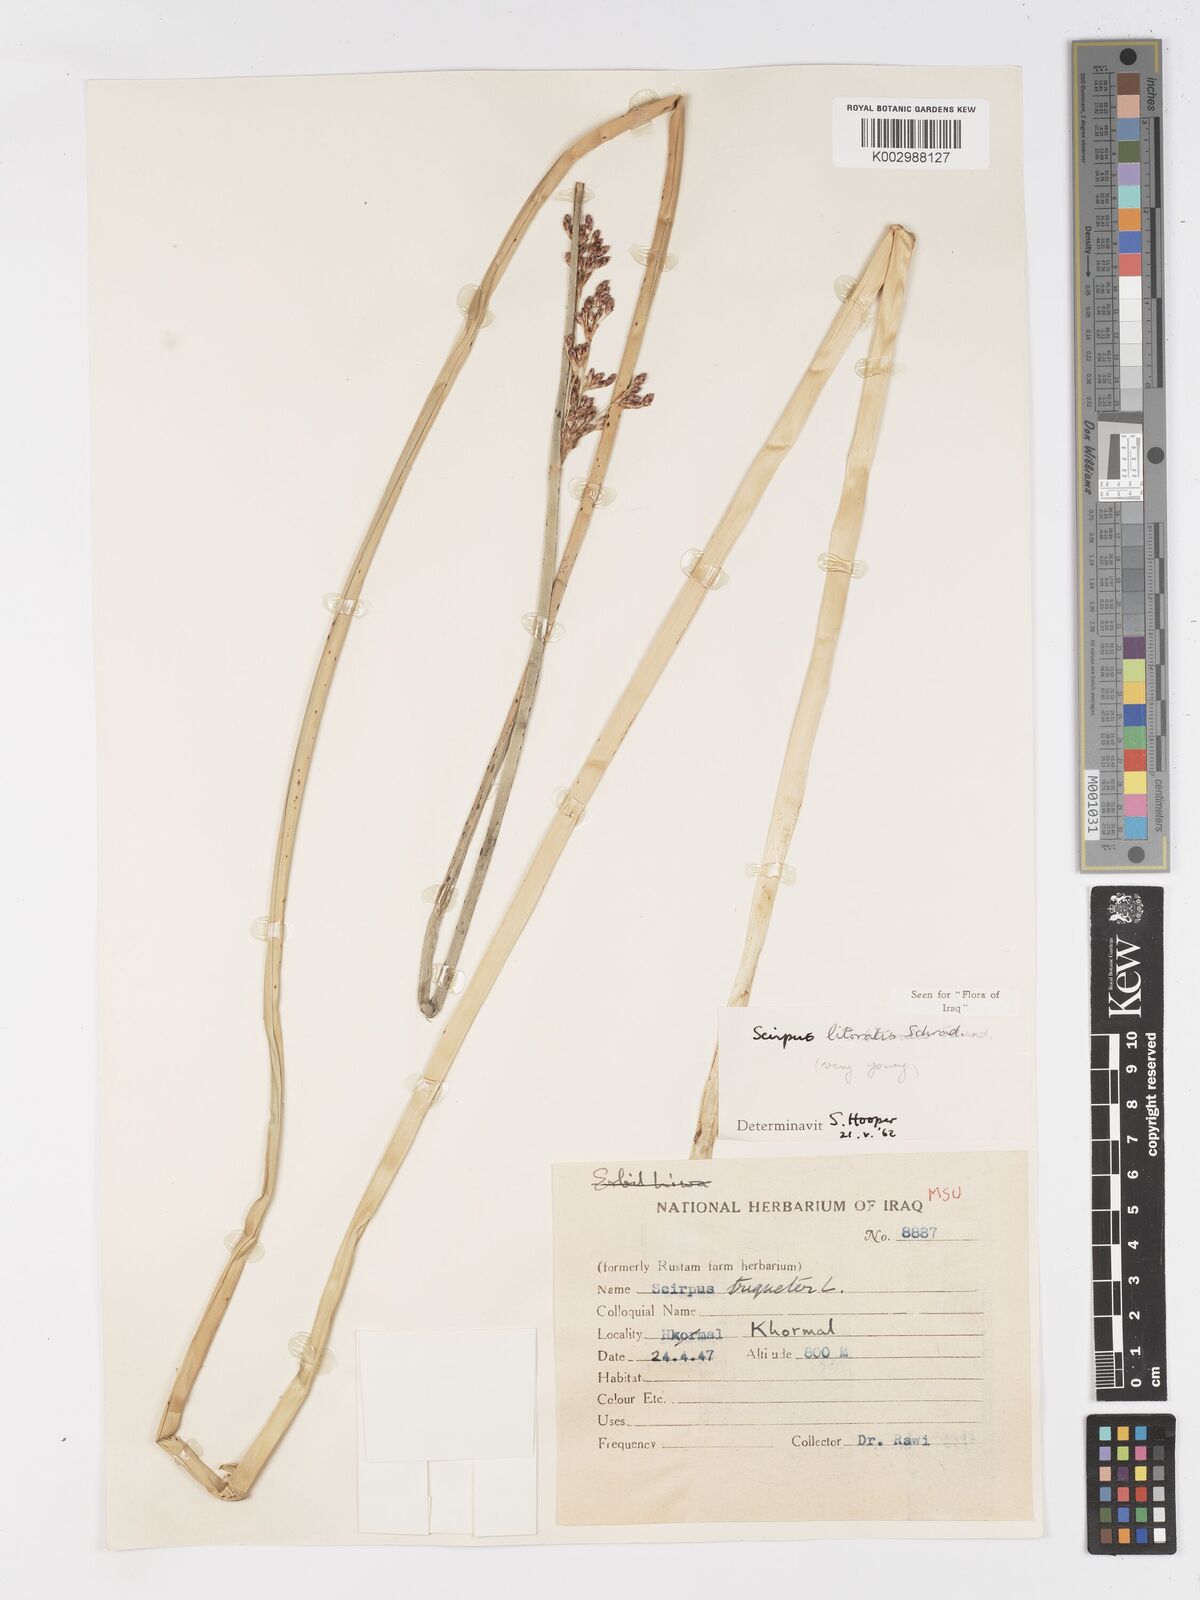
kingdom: Plantae
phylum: Tracheophyta
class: Liliopsida
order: Poales
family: Cyperaceae
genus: Schoenoplectus
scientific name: Schoenoplectus litoralis
